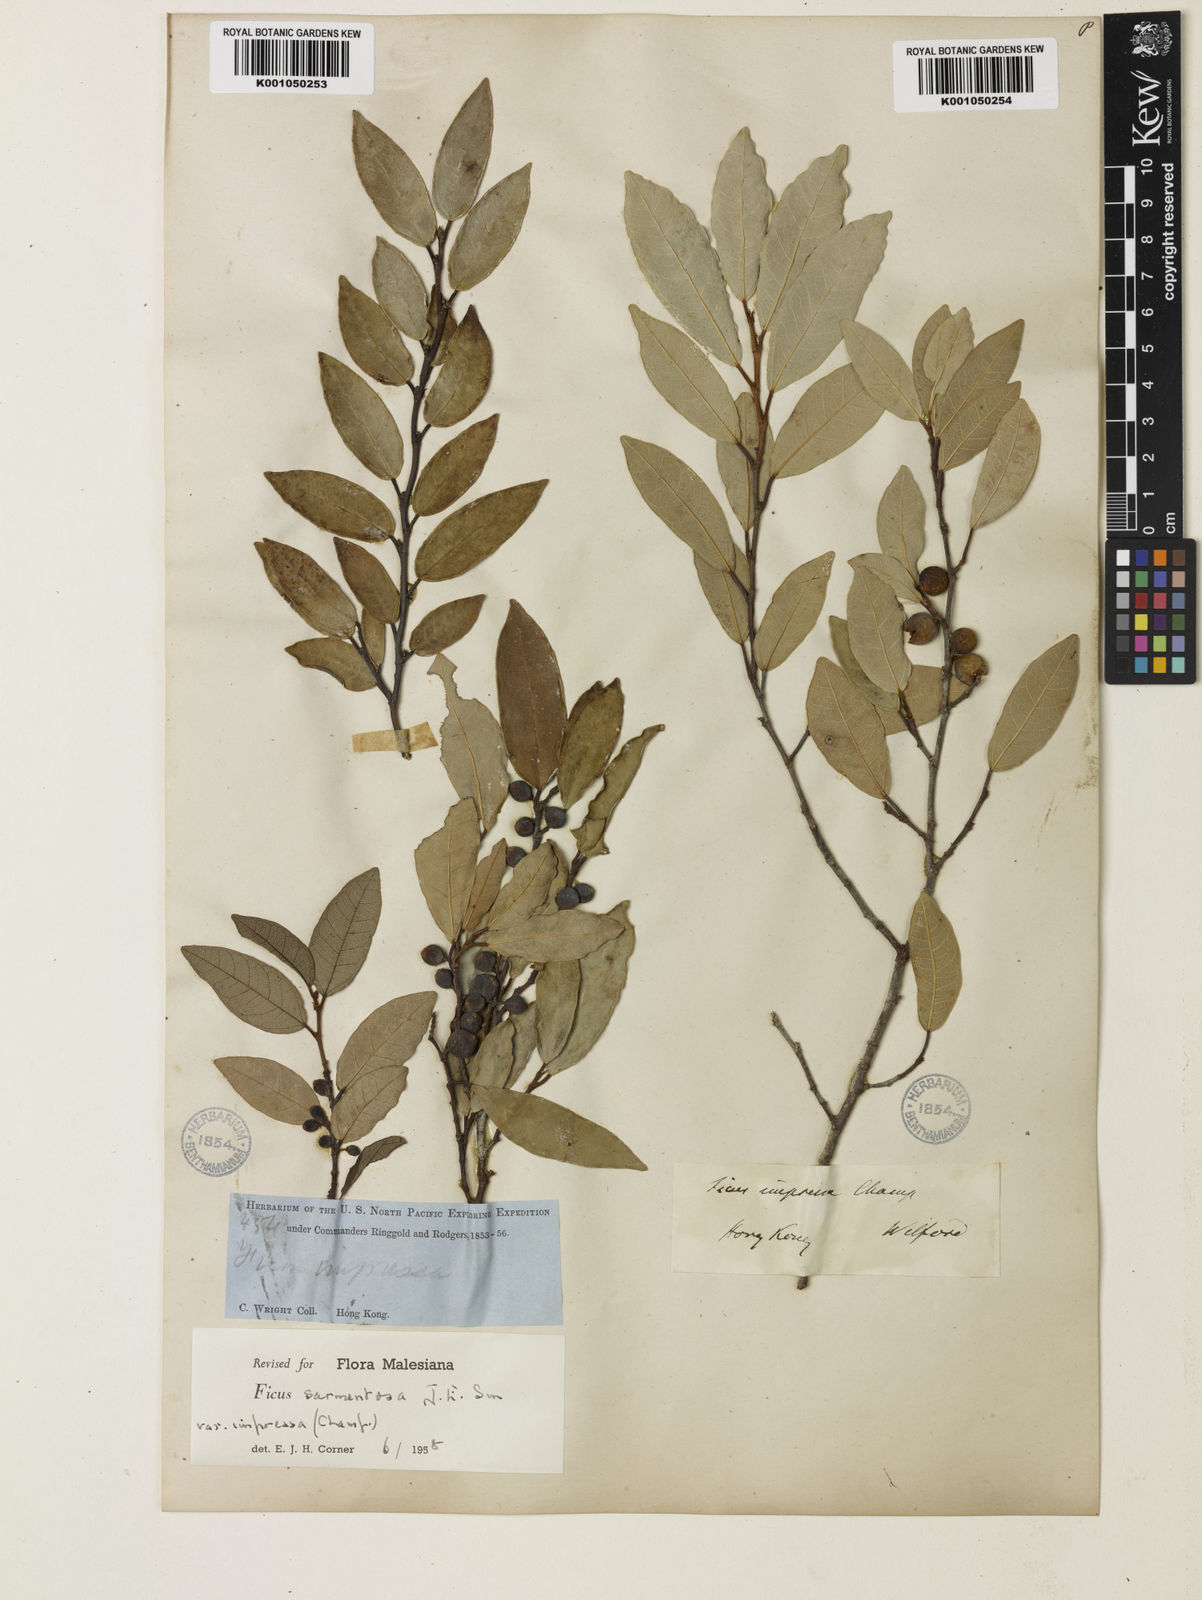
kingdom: Plantae
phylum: Tracheophyta
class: Magnoliopsida
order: Rosales
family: Moraceae
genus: Ficus
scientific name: Ficus sarmentosa
